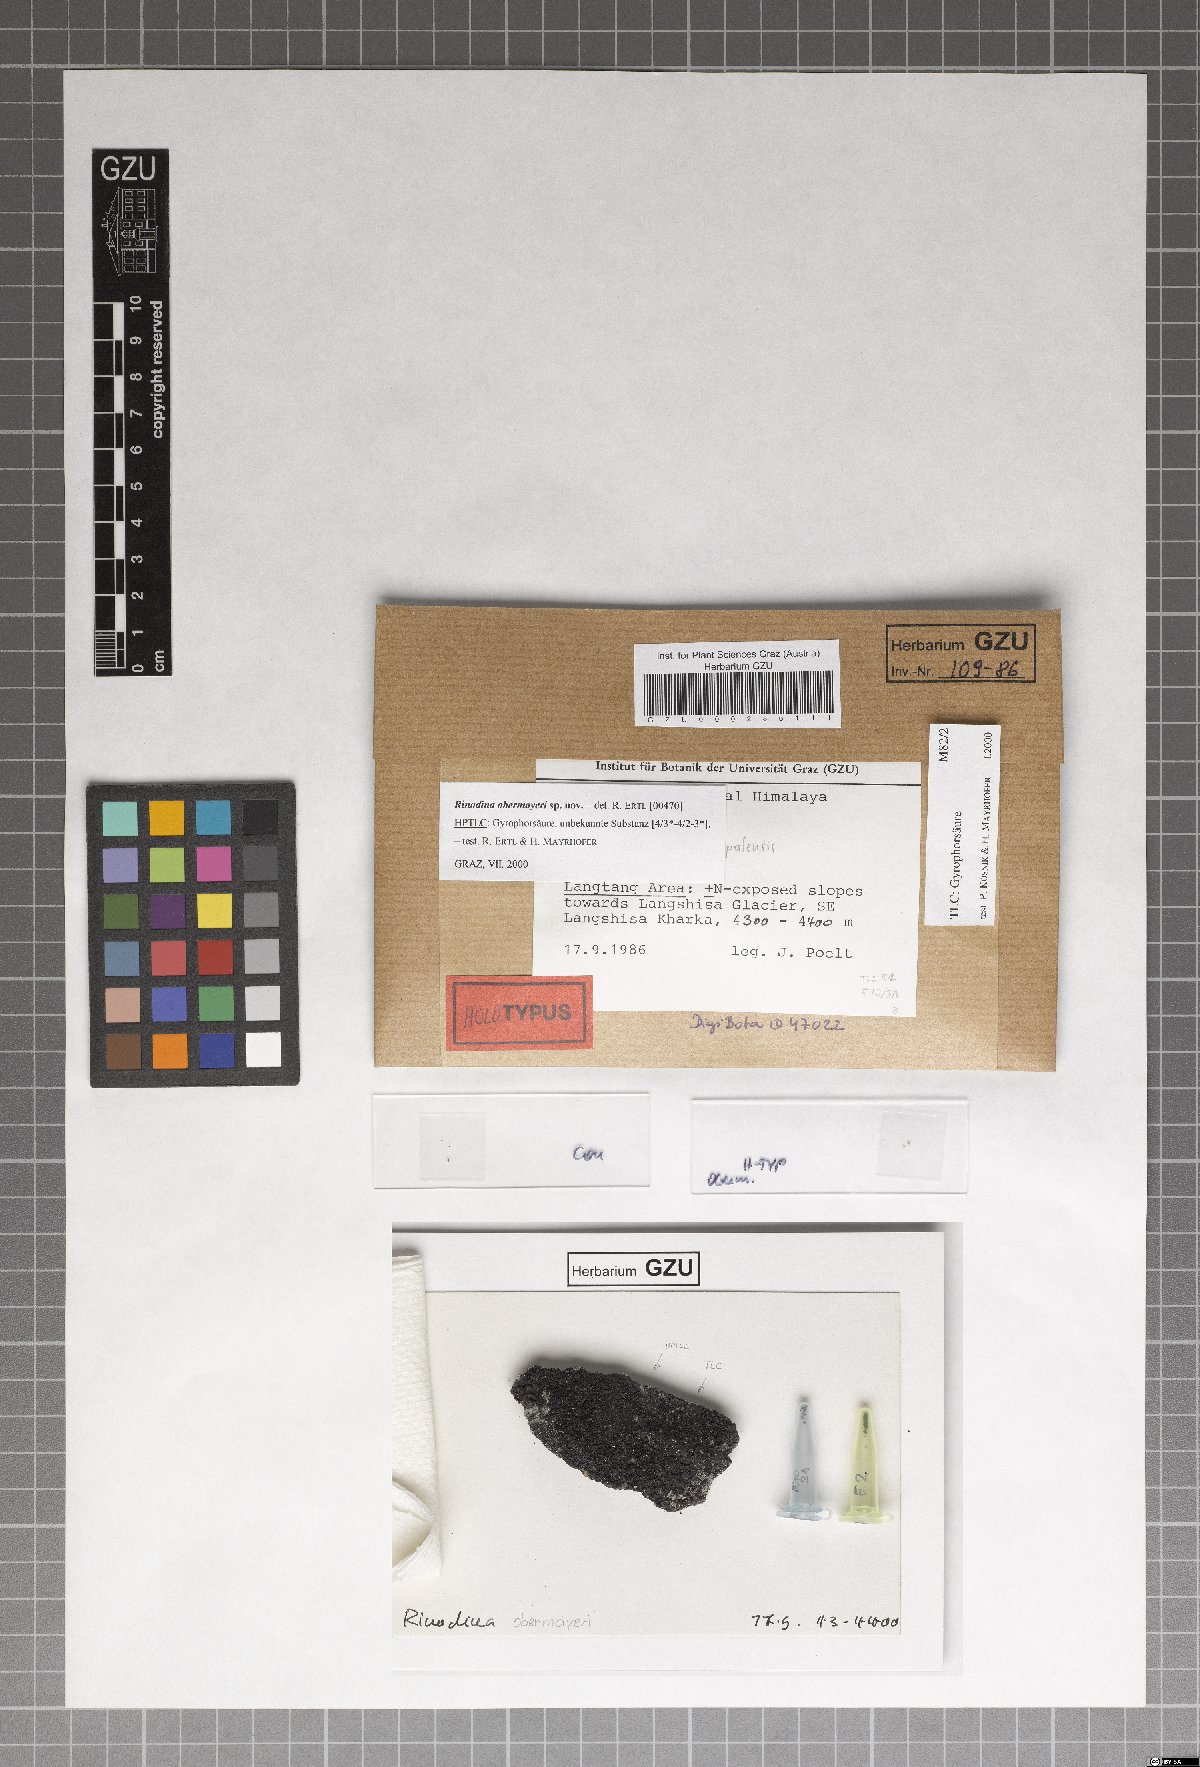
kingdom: Fungi
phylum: Ascomycota
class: Lecanoromycetes
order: Caliciales
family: Physciaceae
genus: Rinodina
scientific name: Rinodina
